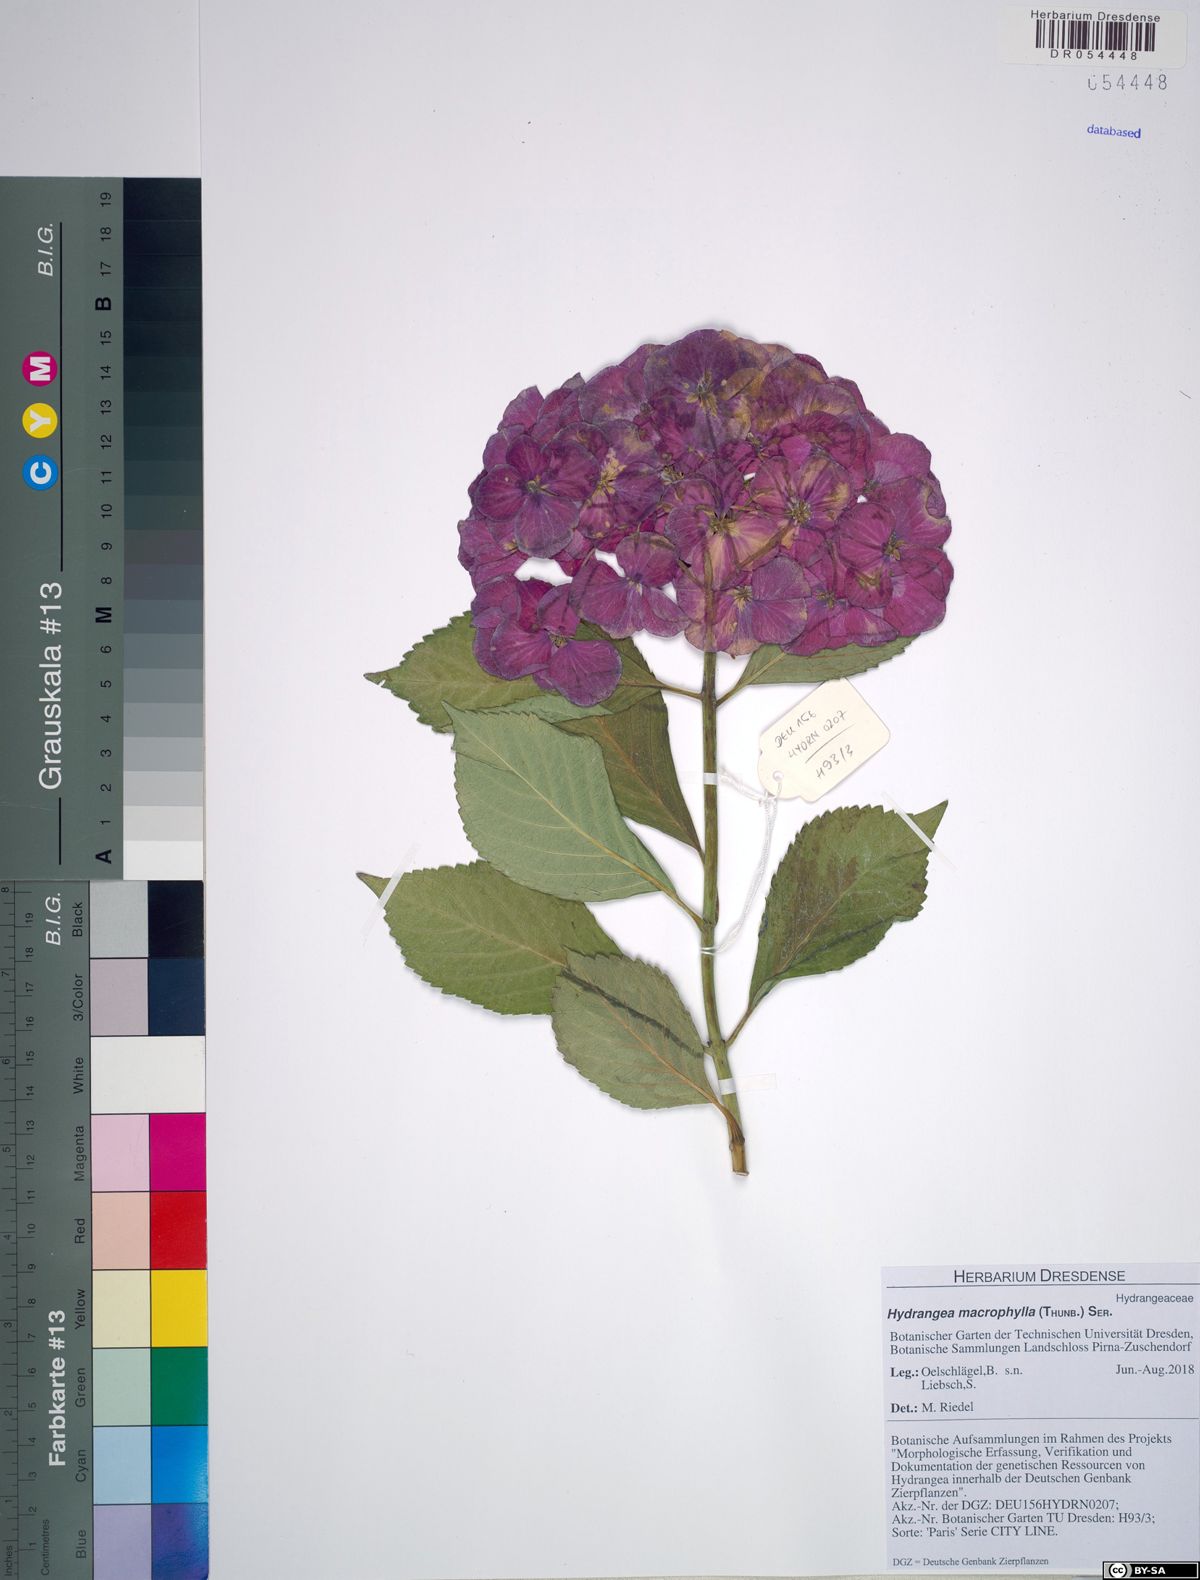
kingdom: Plantae
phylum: Tracheophyta
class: Magnoliopsida
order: Cornales
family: Hydrangeaceae
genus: Hydrangea
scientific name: Hydrangea macrophylla
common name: Hydrangea
